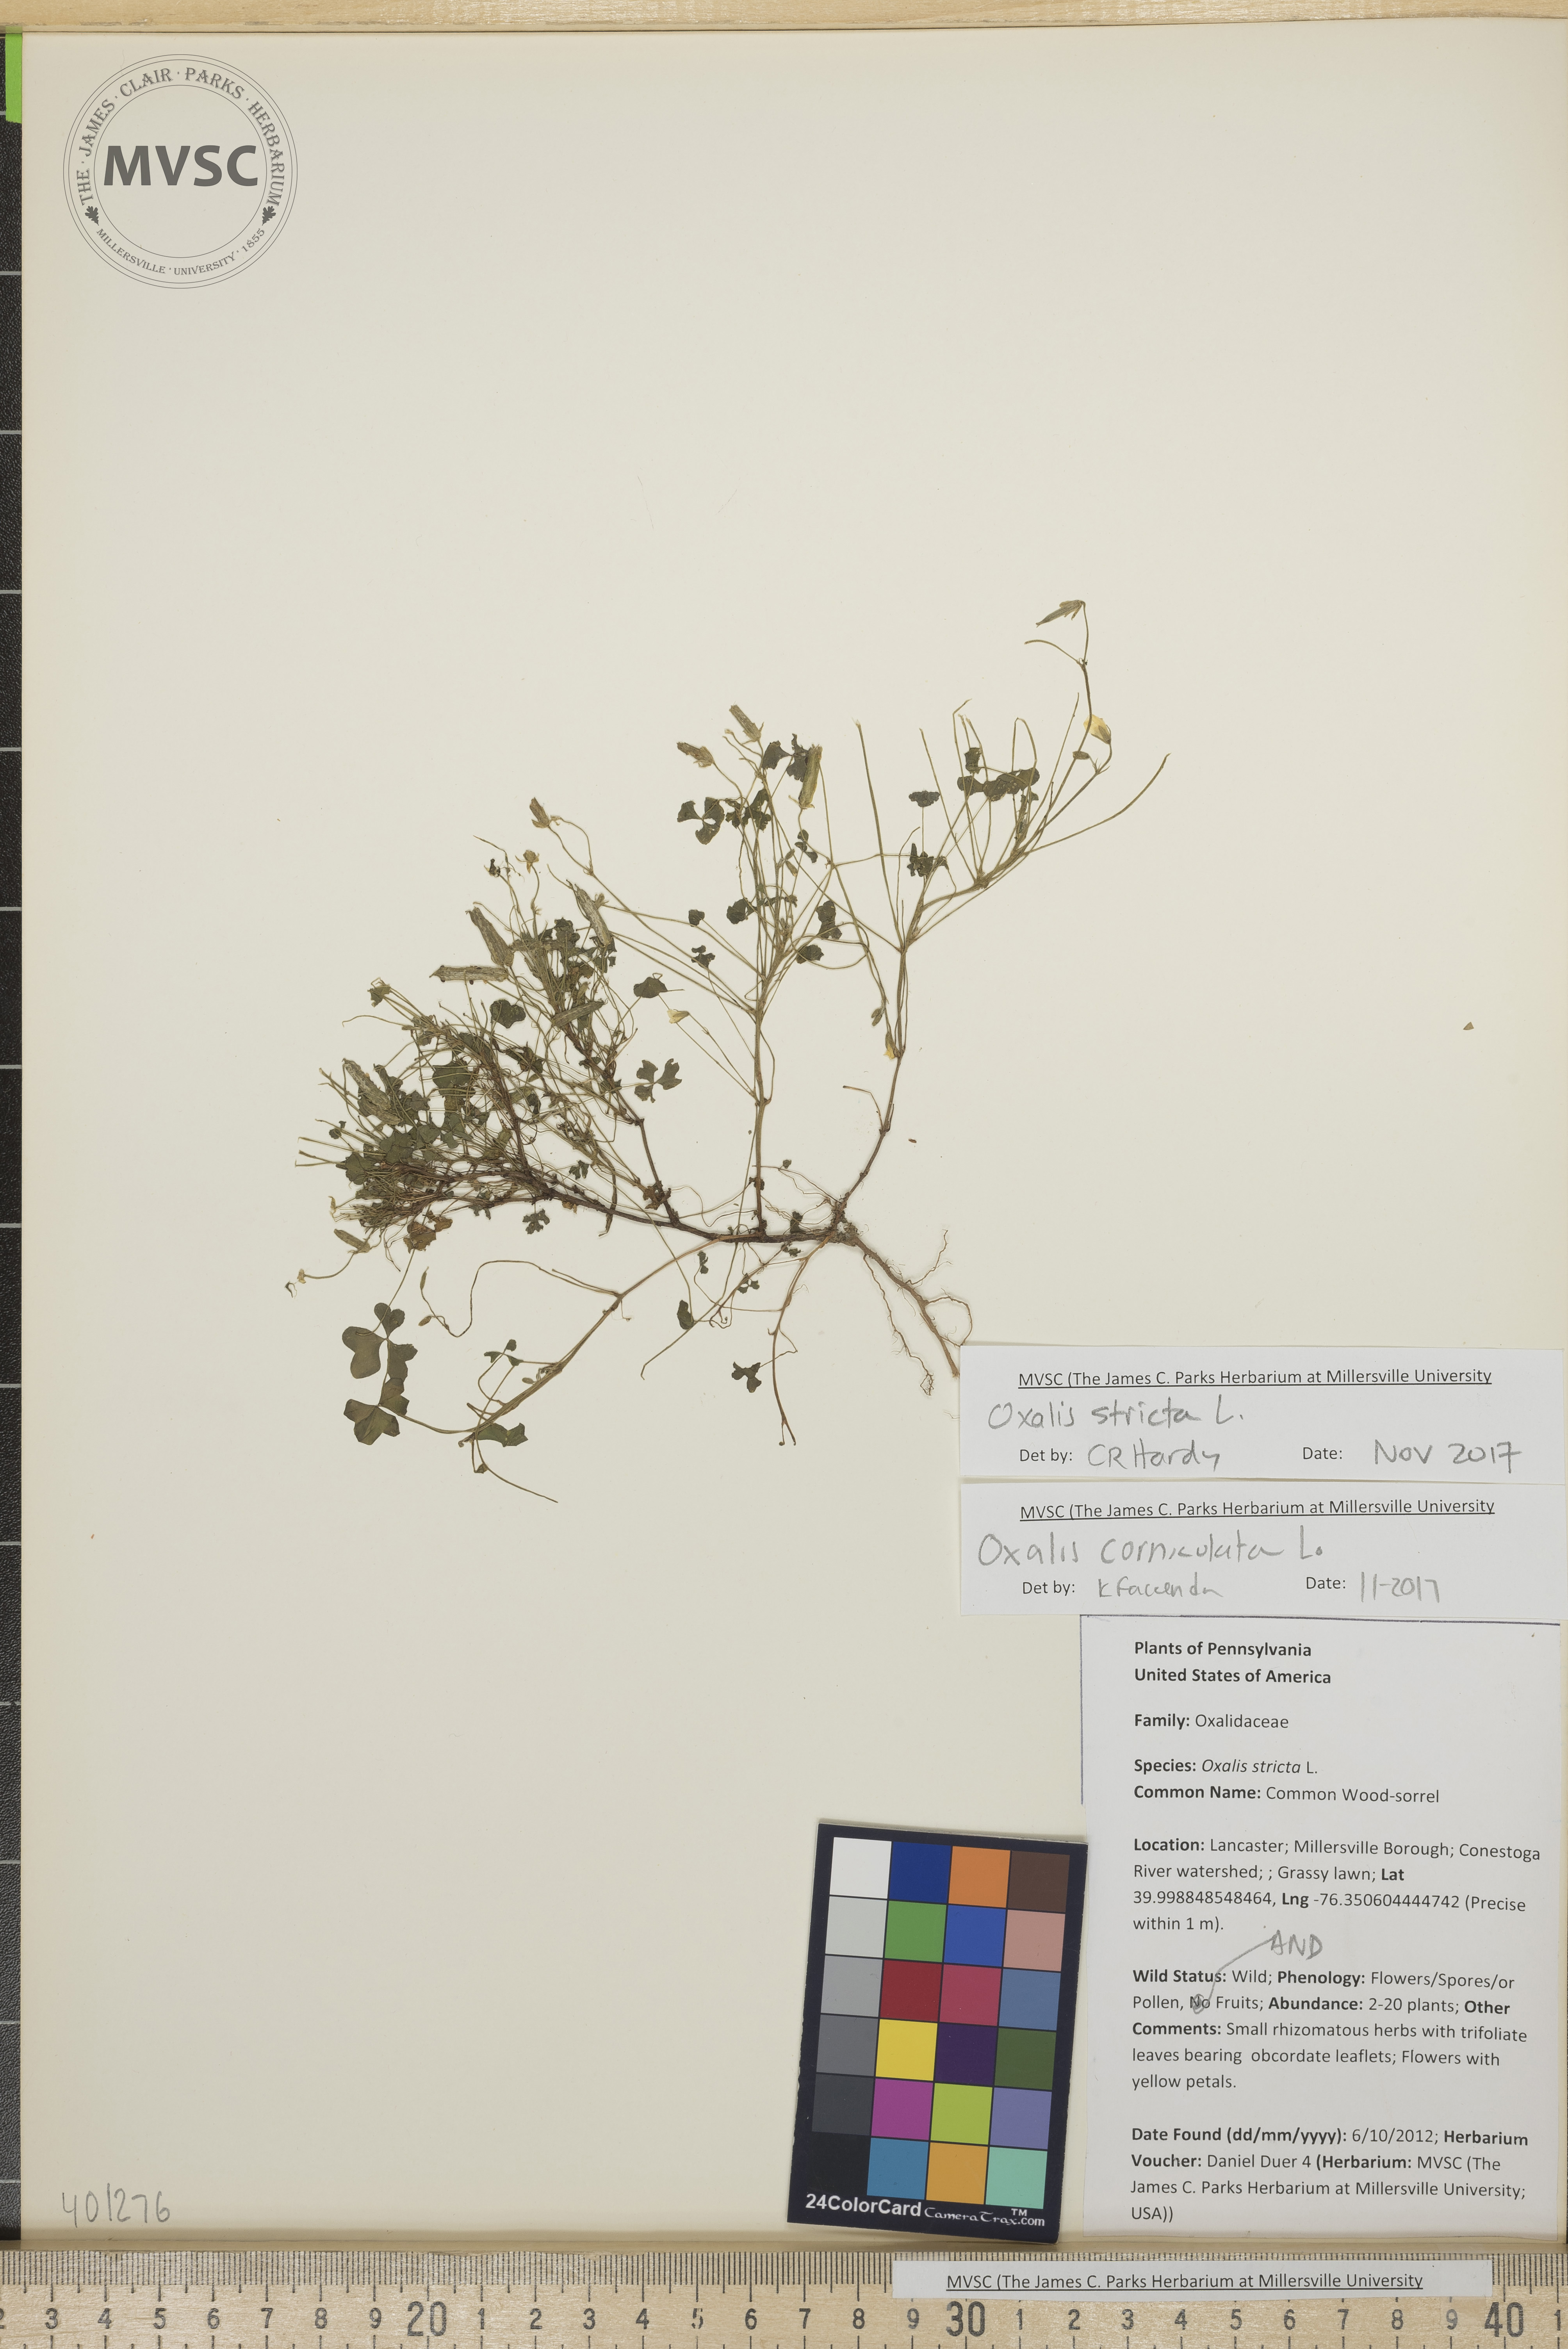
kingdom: Plantae
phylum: Tracheophyta
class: Magnoliopsida
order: Oxalidales
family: Oxalidaceae
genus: Oxalis
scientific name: Oxalis stricta
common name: Common Wood-sorrel
